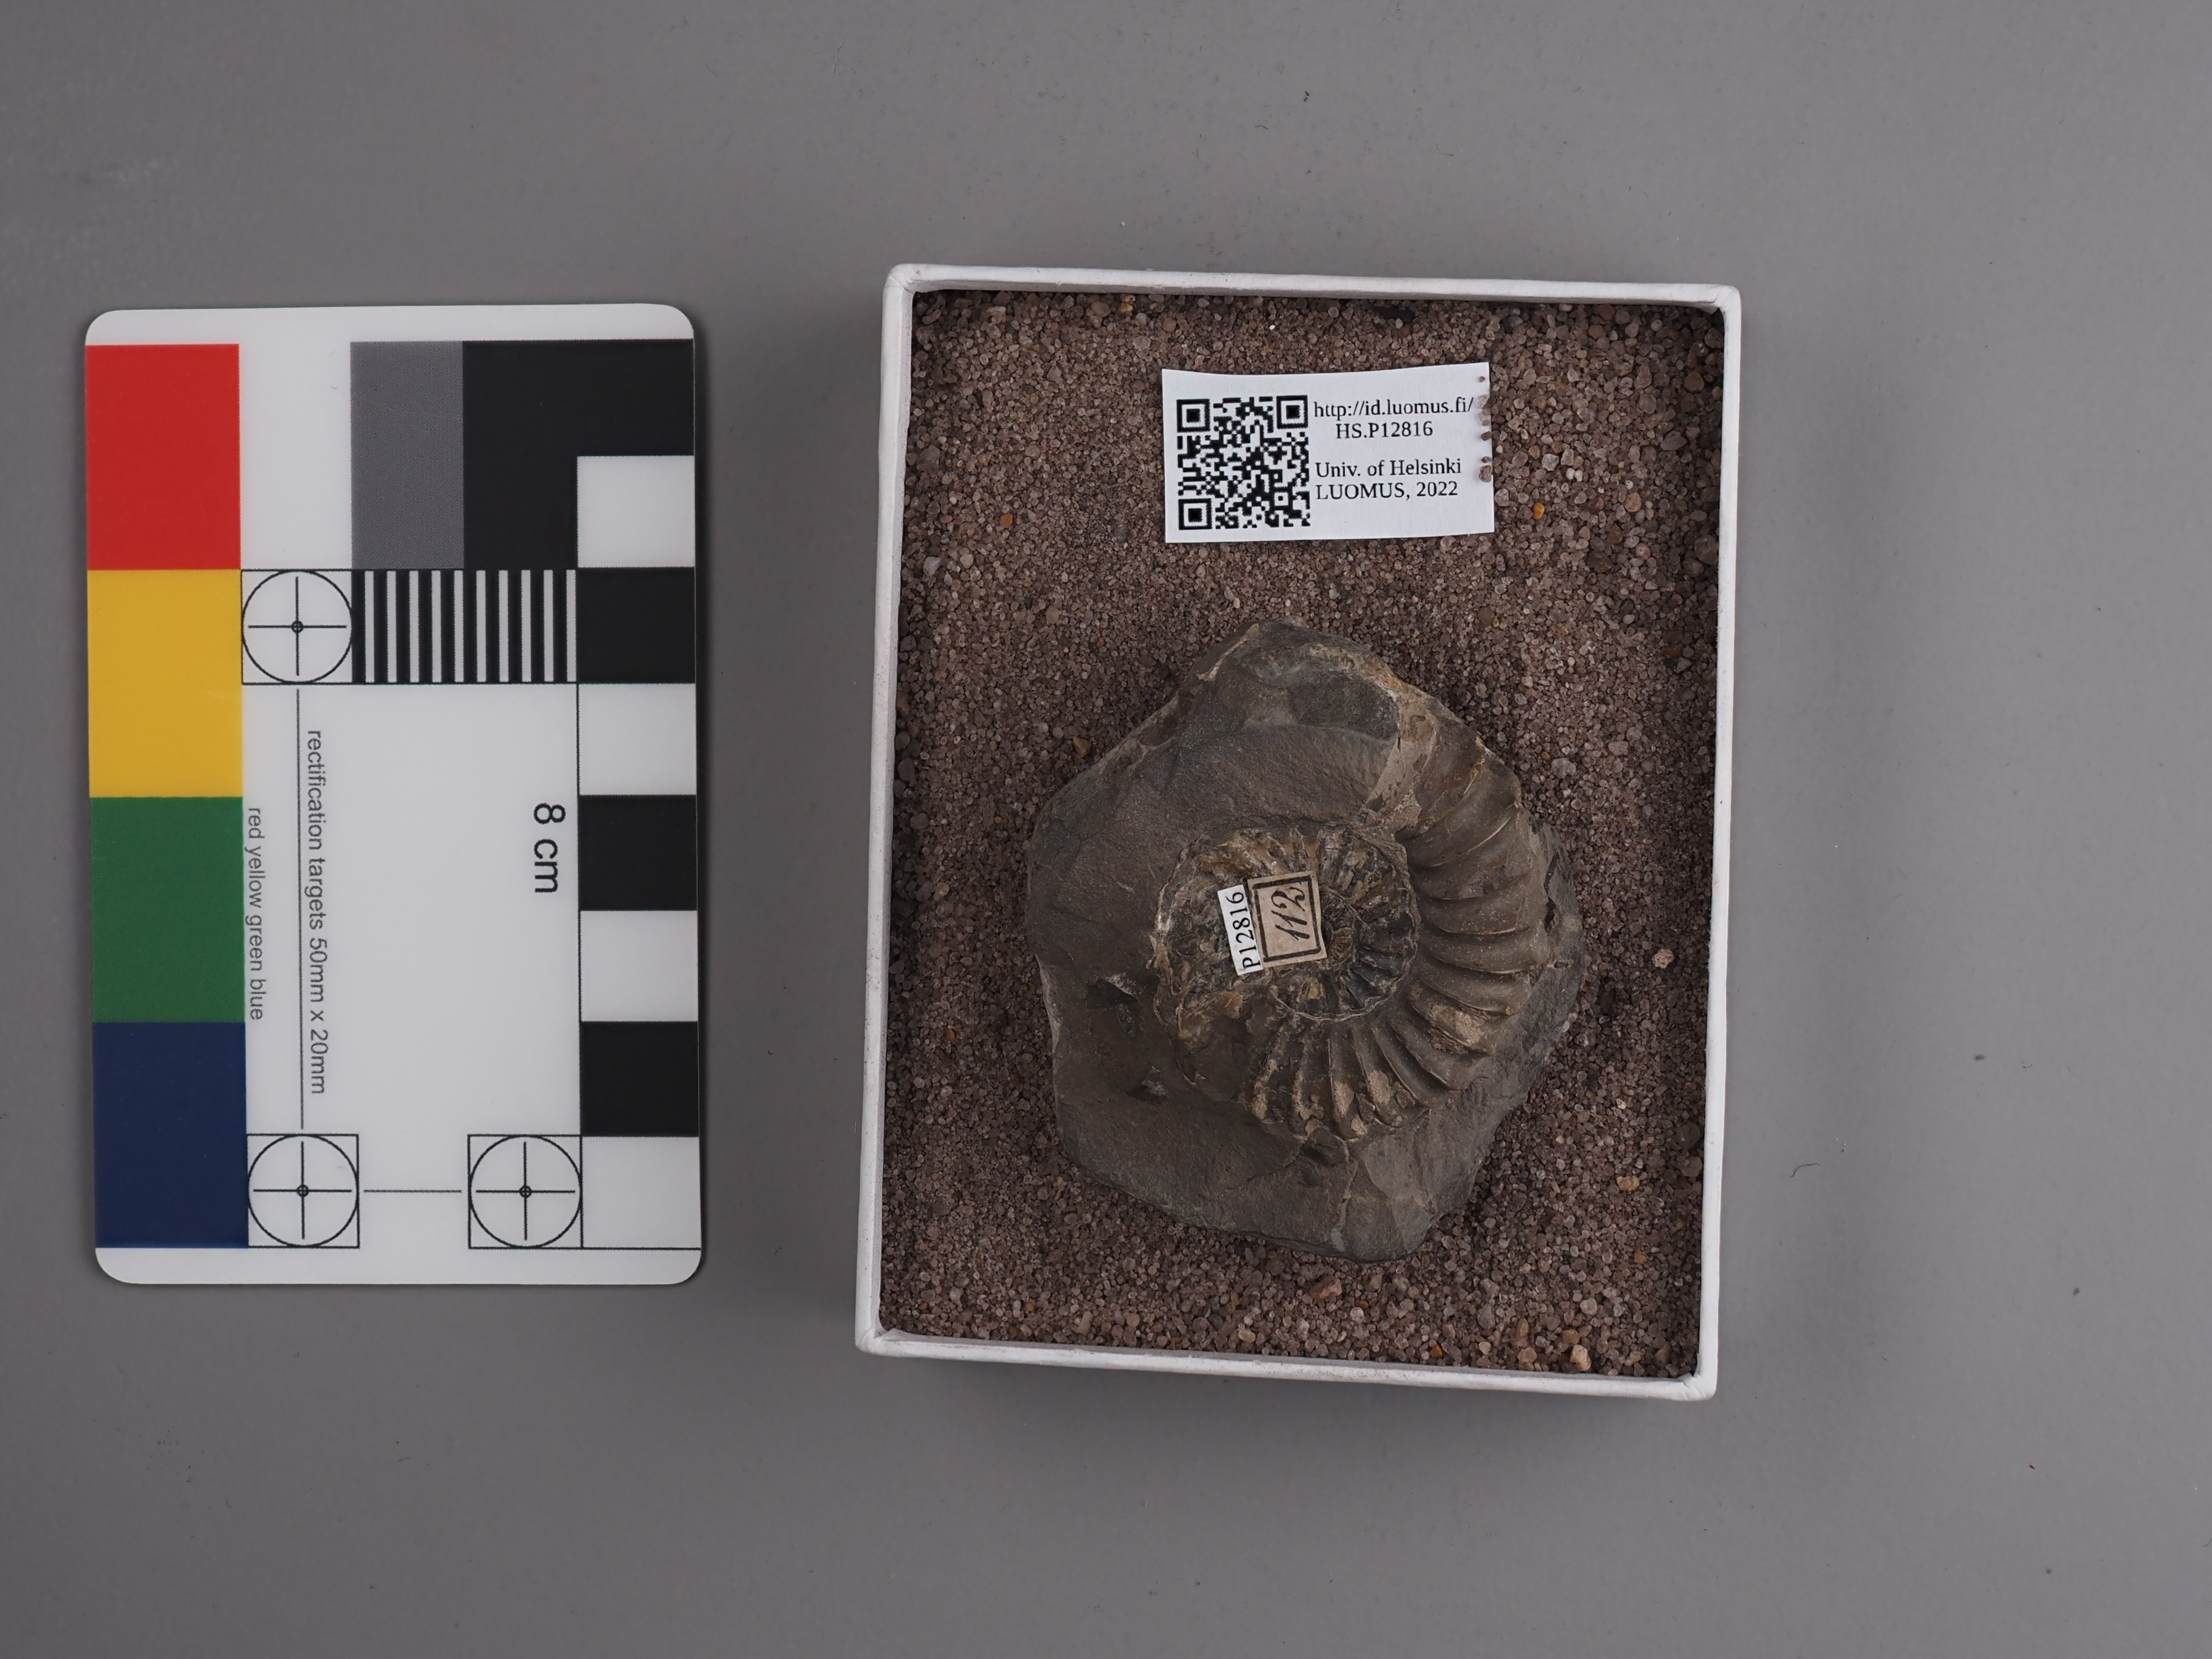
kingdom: Animalia
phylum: Mollusca
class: Cephalopoda
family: Hildoceratidae
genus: Grammoceras
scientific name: Grammoceras
